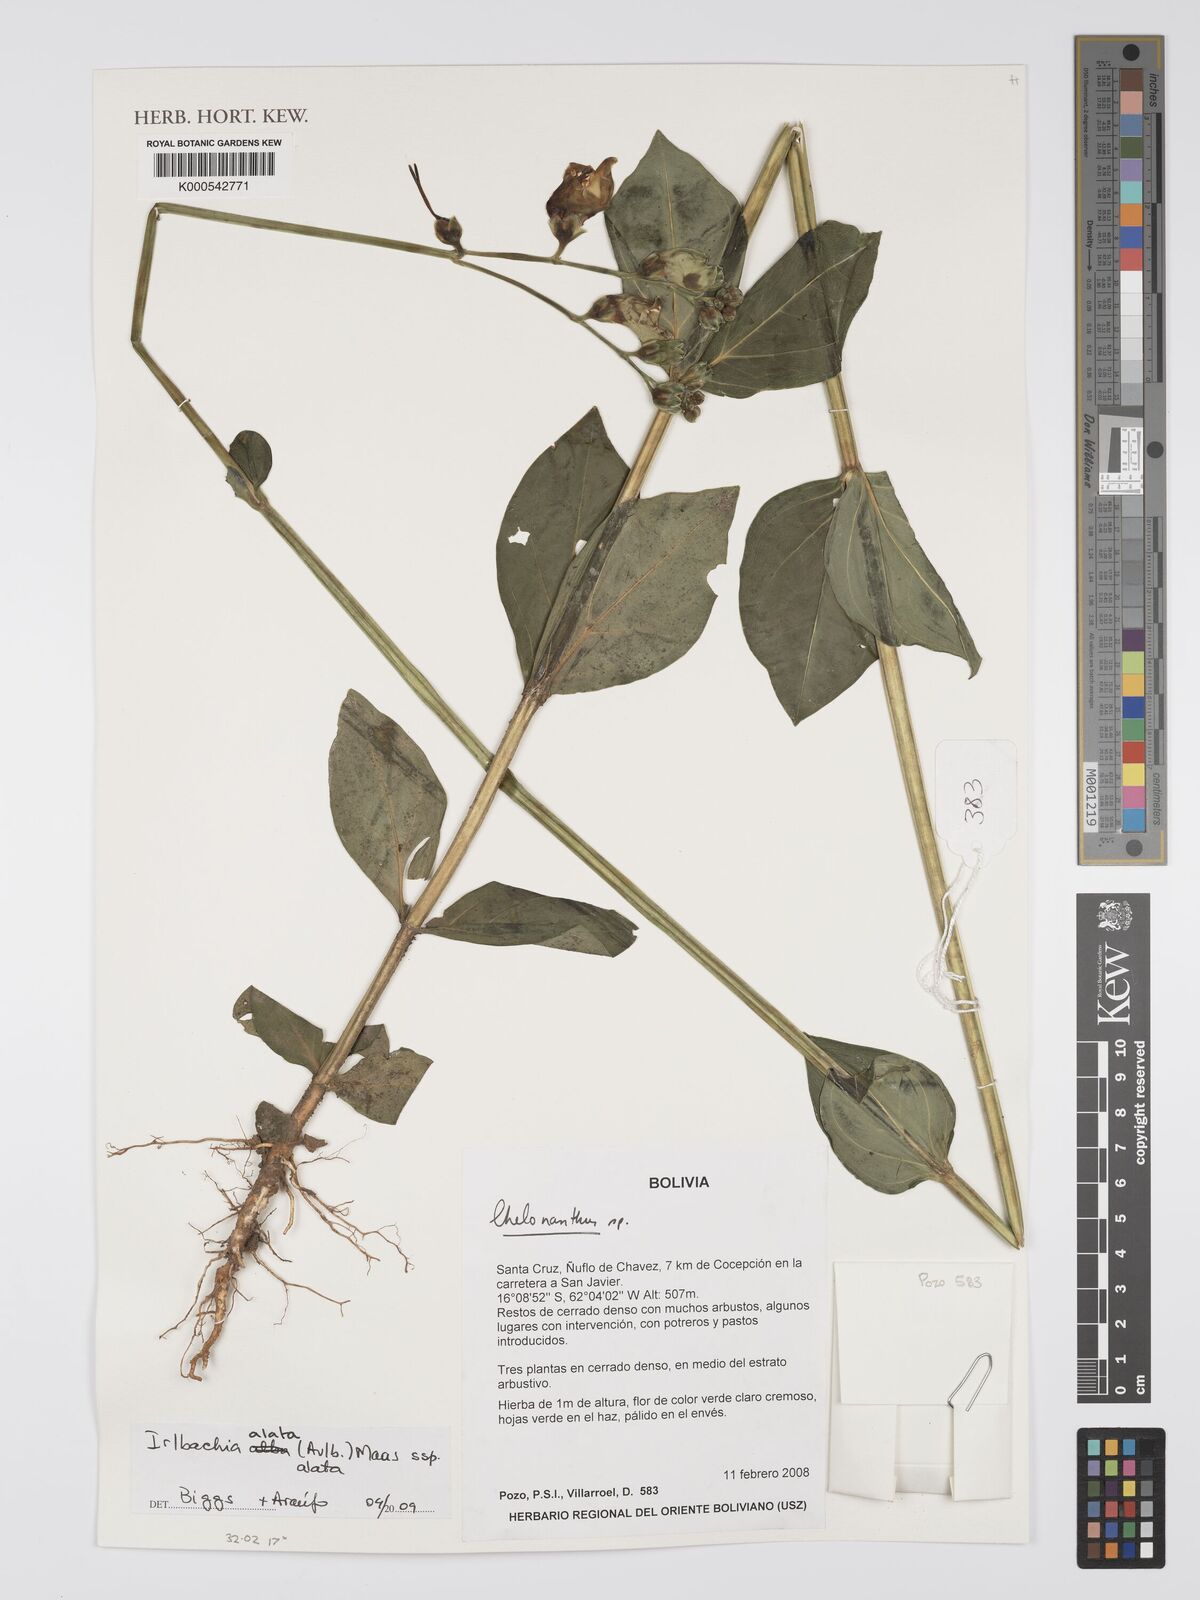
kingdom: Plantae
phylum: Tracheophyta
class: Magnoliopsida
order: Gentianales
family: Gentianaceae
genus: Chelonanthus
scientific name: Chelonanthus alatus
